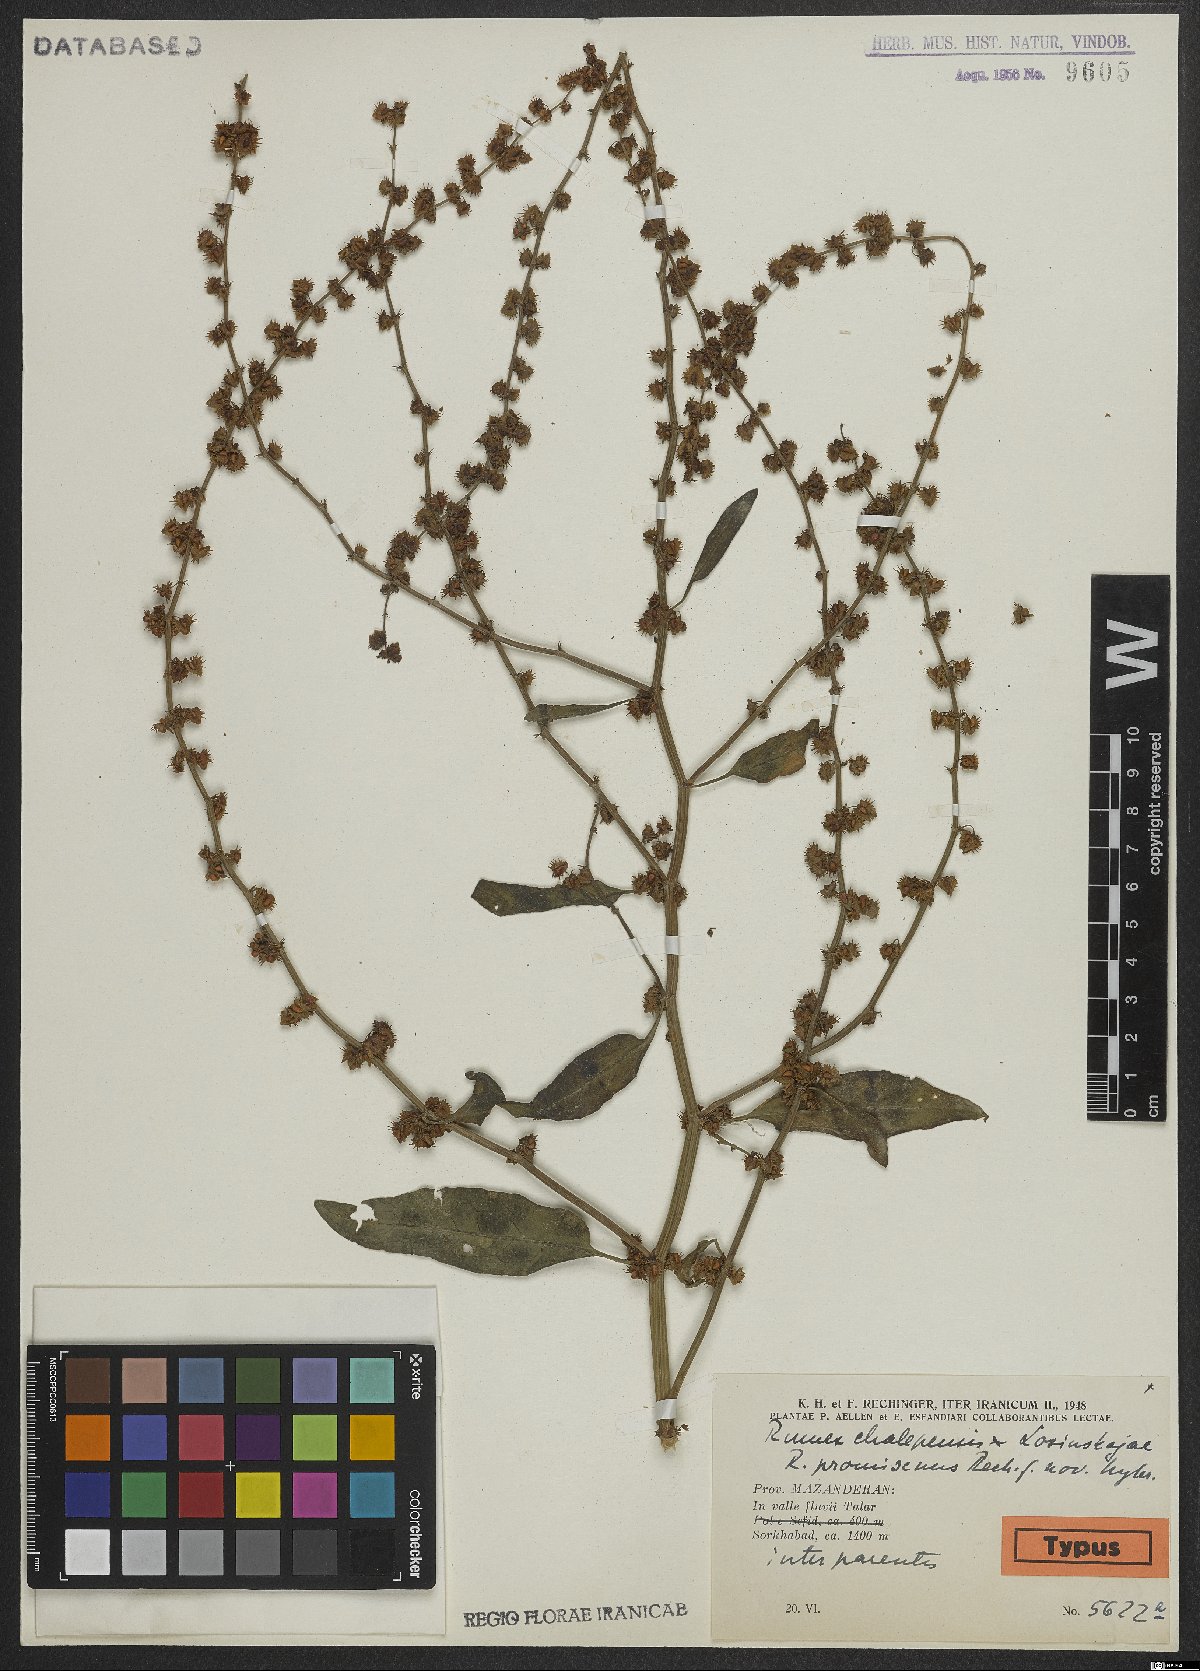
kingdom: Plantae
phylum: Tracheophyta
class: Magnoliopsida
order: Caryophyllales
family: Polygonaceae
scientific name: Polygonaceae
